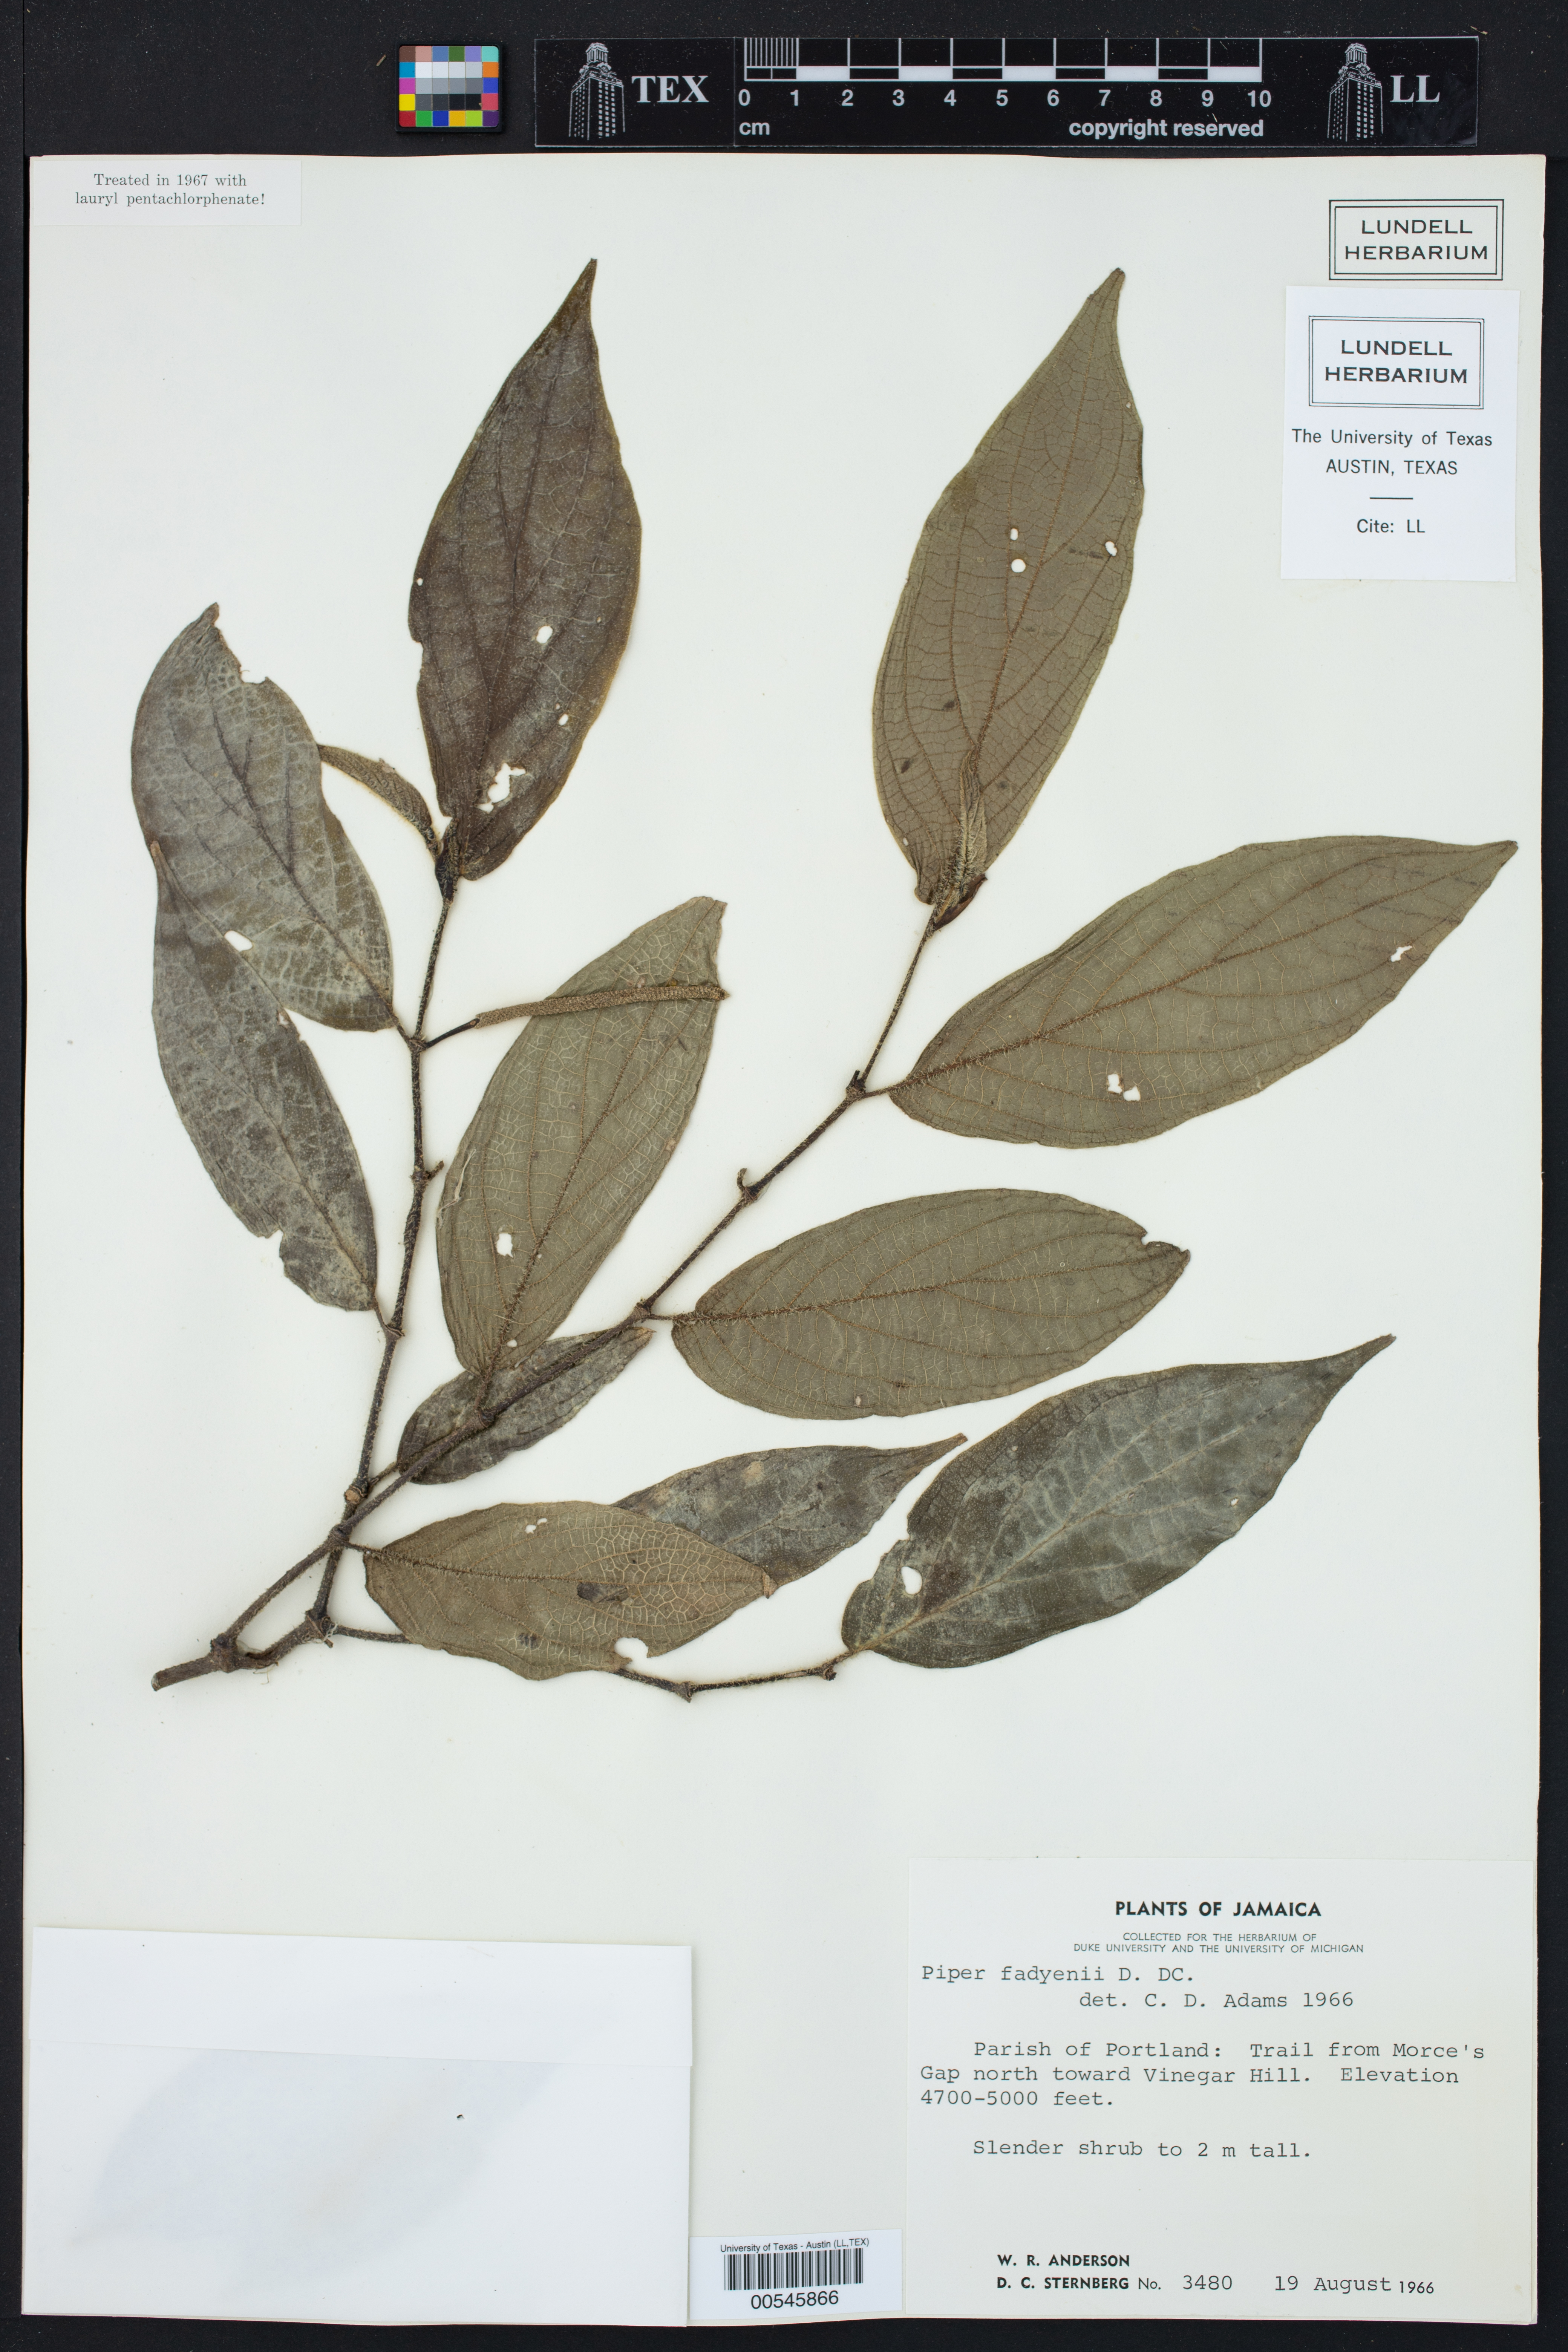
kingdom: Plantae
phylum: Tracheophyta
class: Magnoliopsida
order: Piperales
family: Piperaceae
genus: Piper
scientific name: Piper fadyenii
